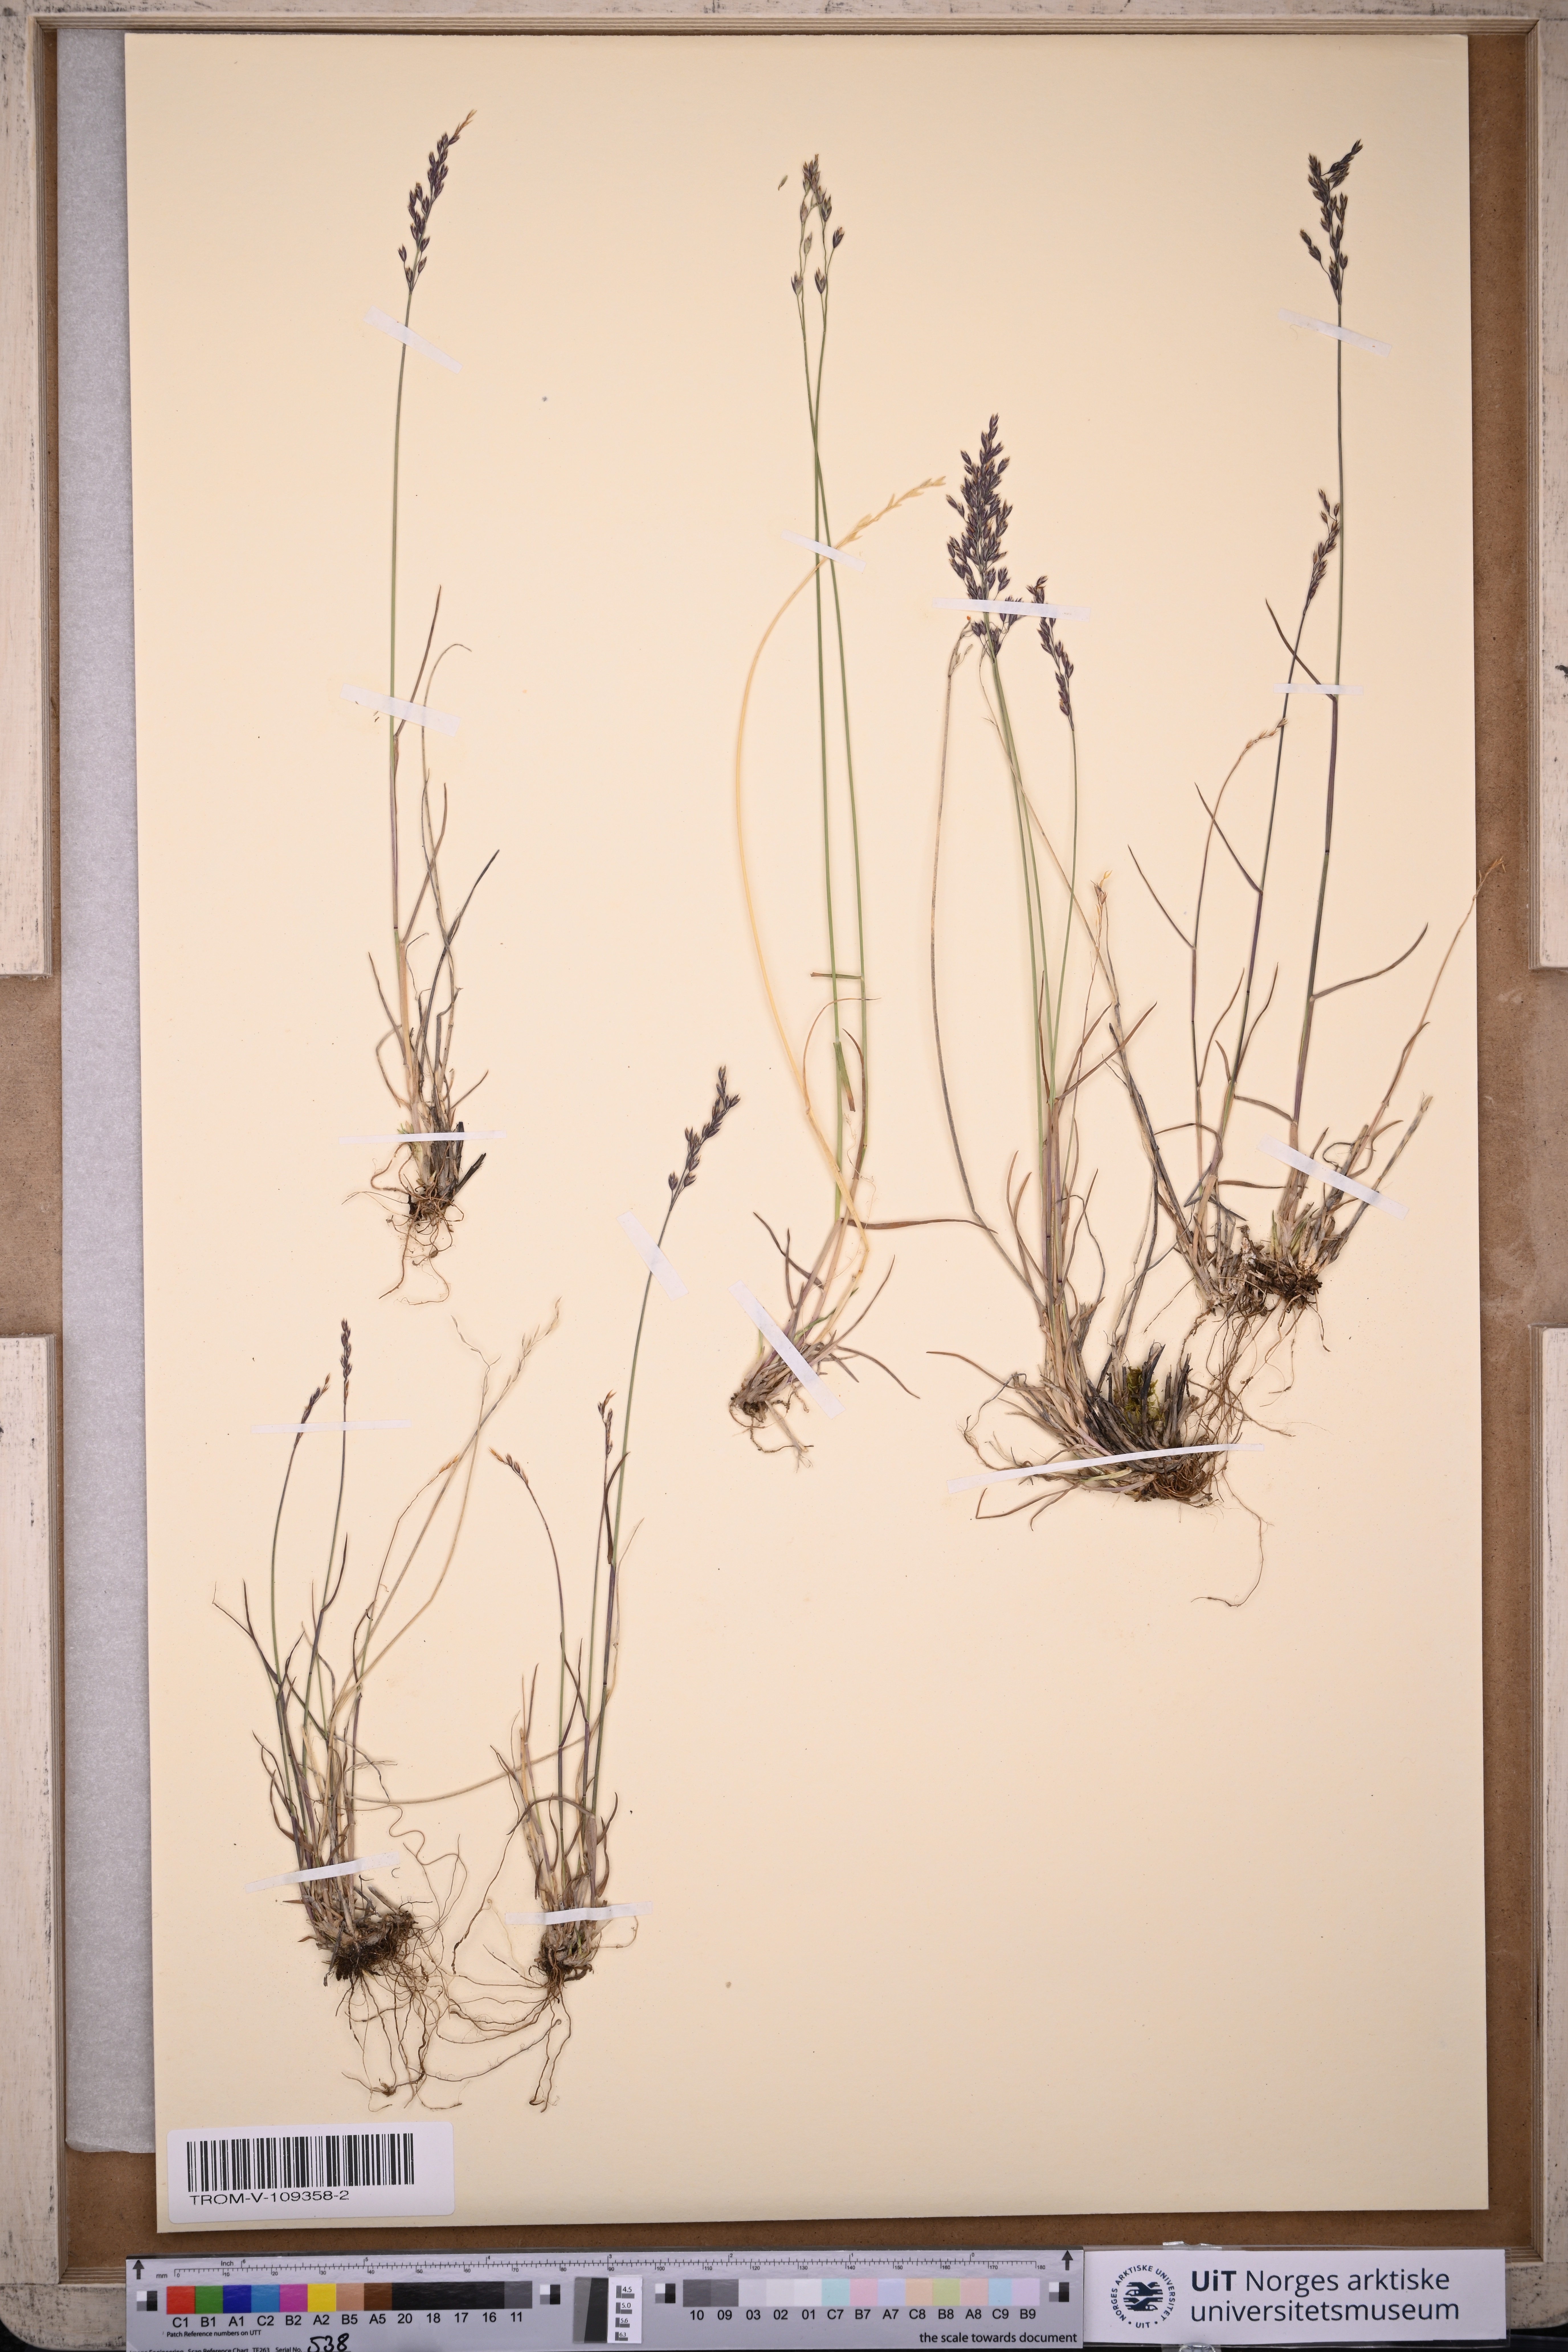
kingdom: Plantae
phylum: Tracheophyta
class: Liliopsida
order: Poales
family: Poaceae
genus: Poa
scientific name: Poa glauca
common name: Glaucous bluegrass
